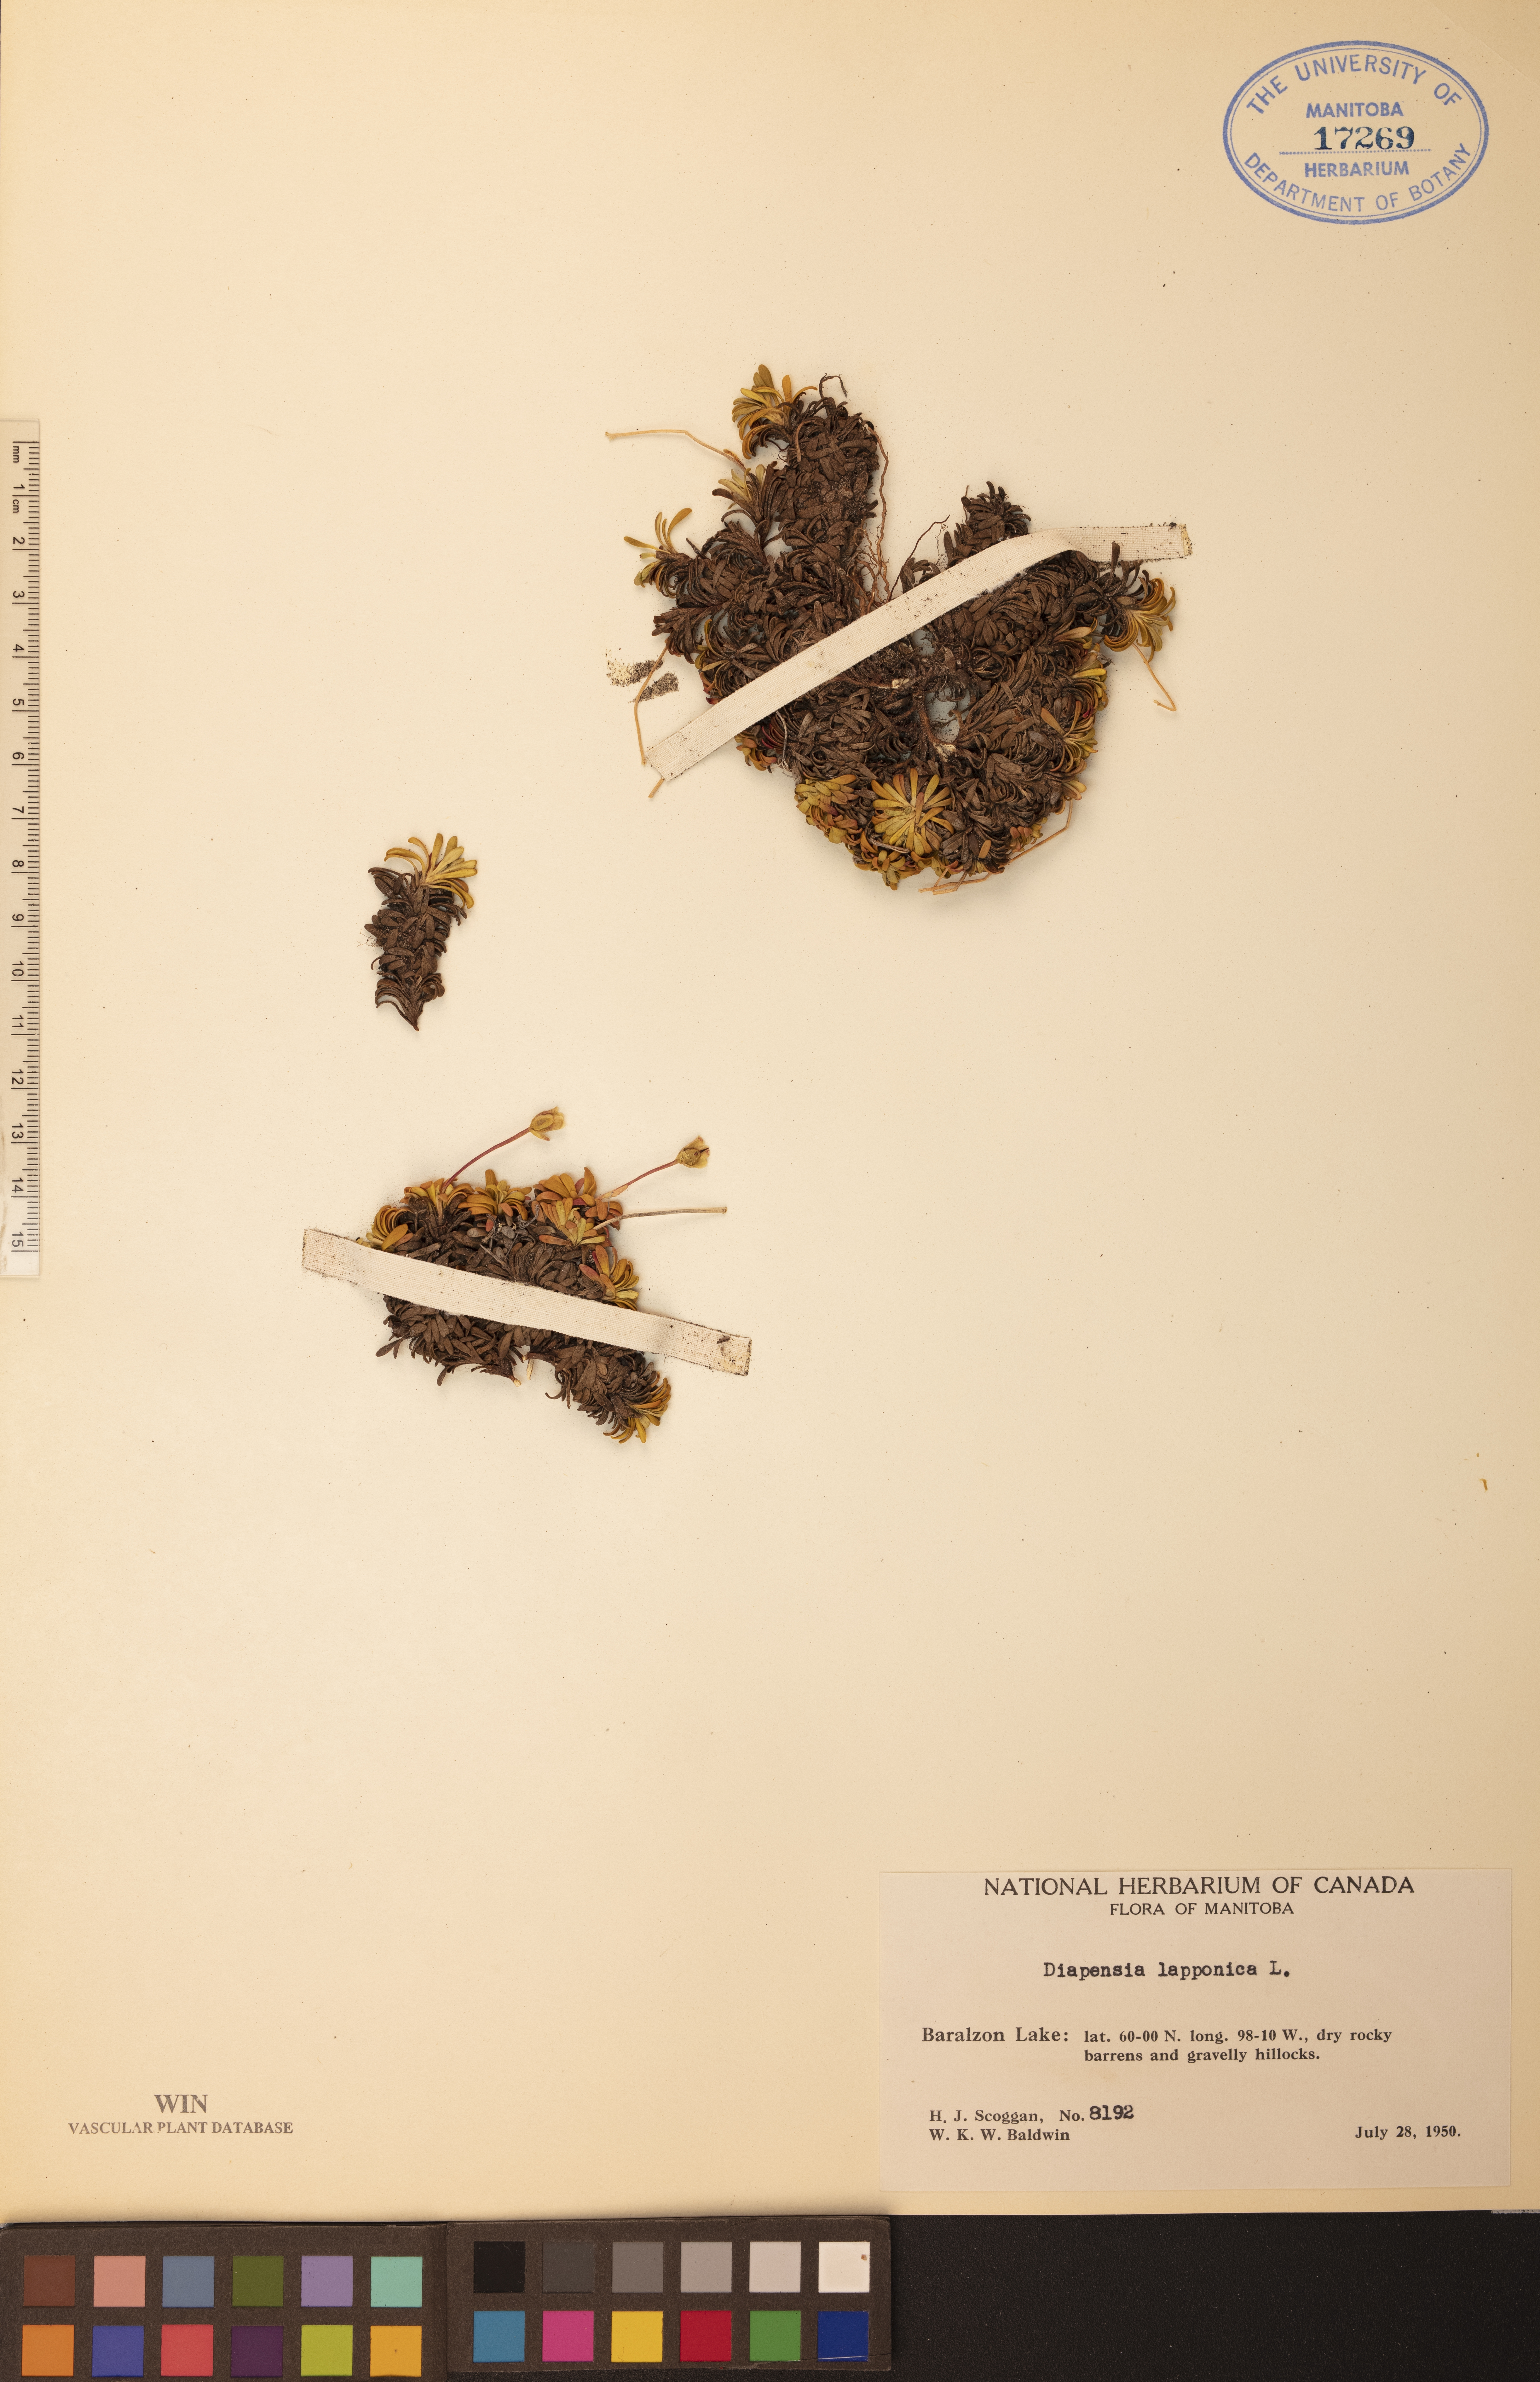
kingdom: Plantae
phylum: Tracheophyta
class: Magnoliopsida
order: Ericales
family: Diapensiaceae
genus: Diapensia
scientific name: Diapensia lapponica
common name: Diapensia
